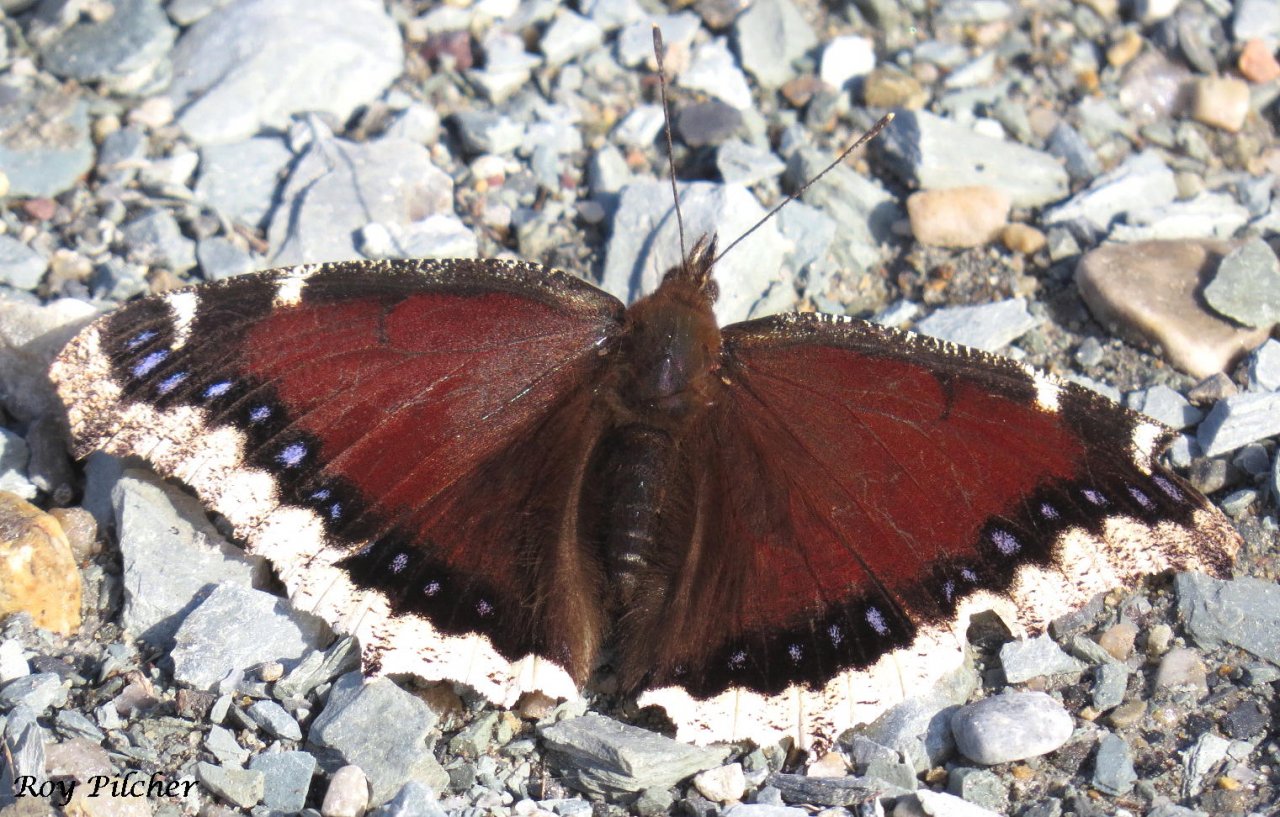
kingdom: Animalia
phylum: Arthropoda
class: Insecta
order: Lepidoptera
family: Nymphalidae
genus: Nymphalis
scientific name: Nymphalis antiopa
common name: Mourning Cloak
